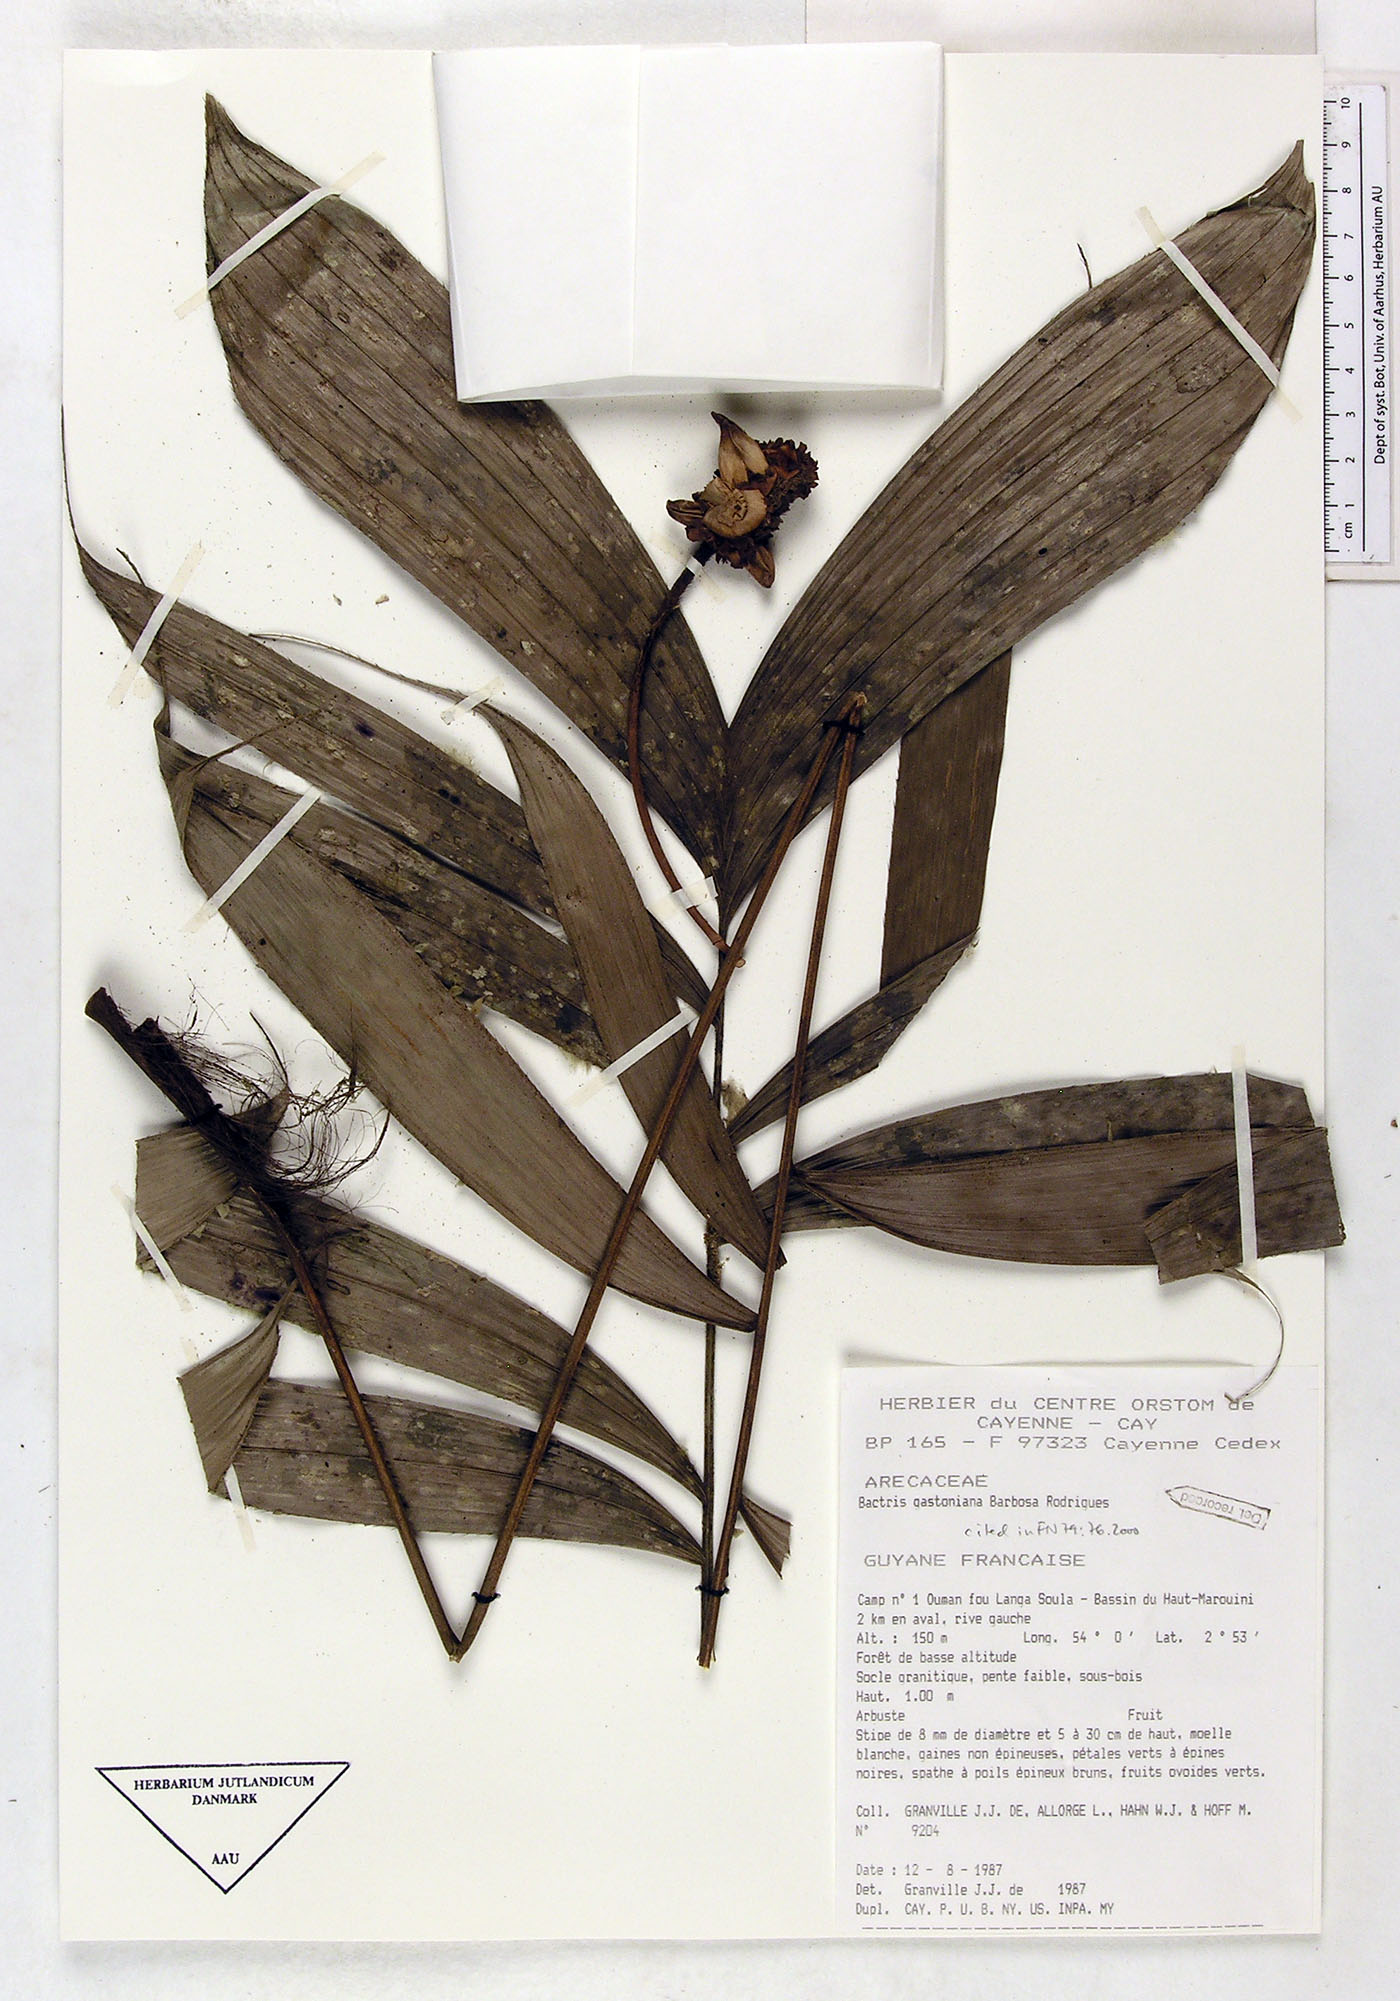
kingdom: Plantae
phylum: Tracheophyta
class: Liliopsida
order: Arecales
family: Arecaceae
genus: Bactris
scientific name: Bactris gastoniana
